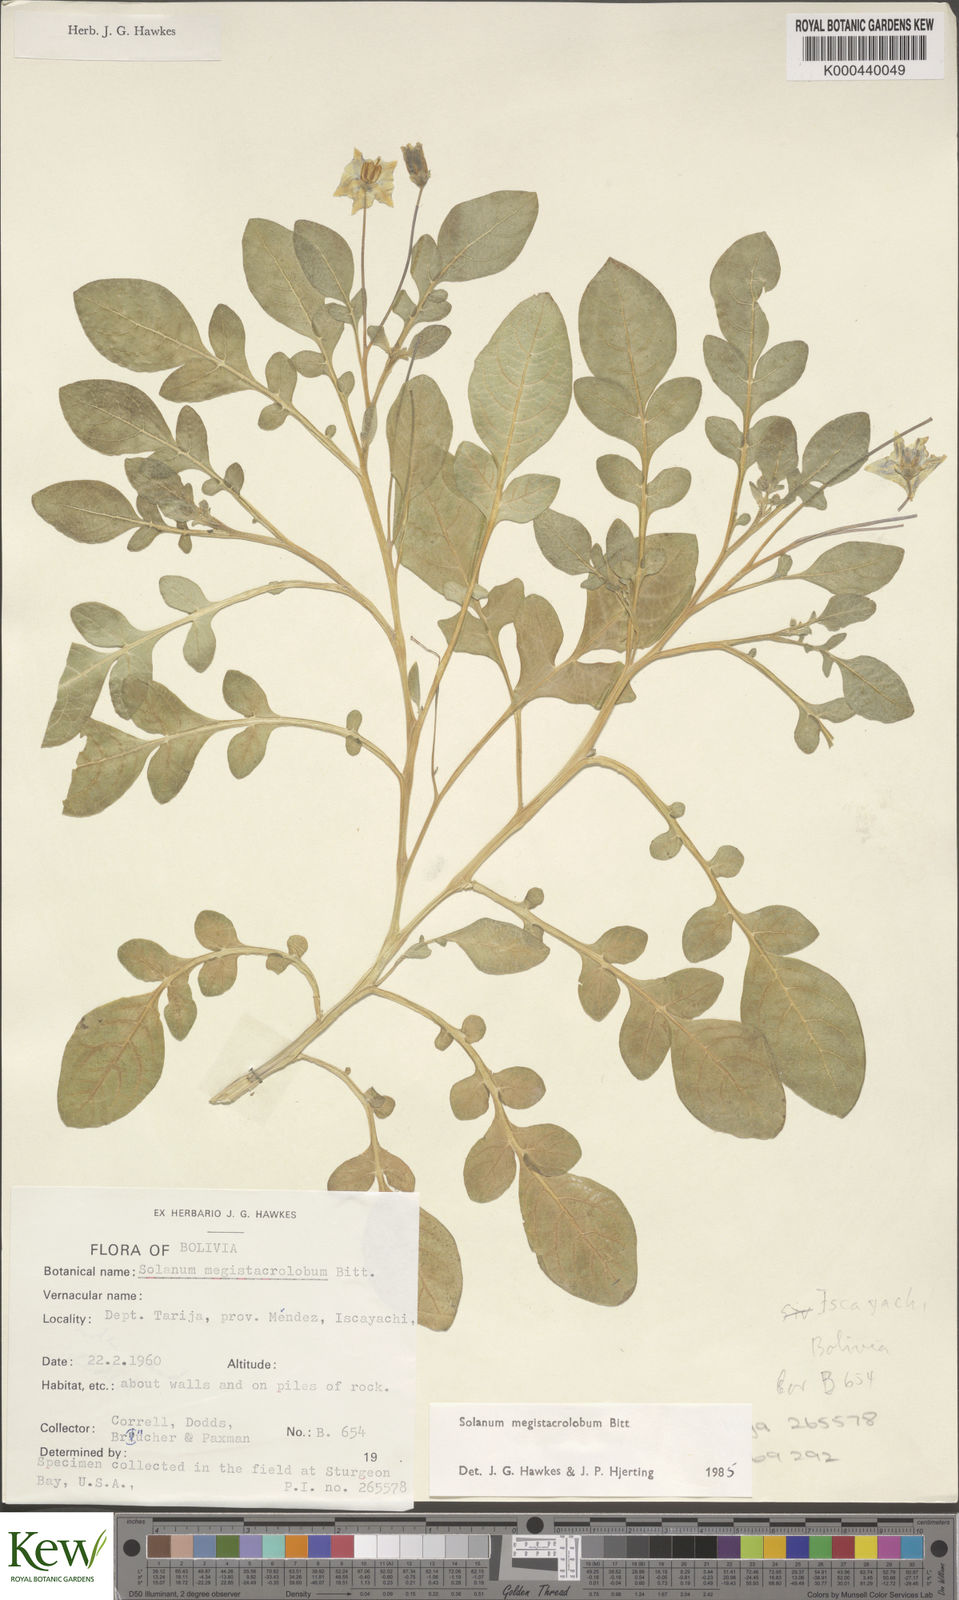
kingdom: Plantae
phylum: Tracheophyta
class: Magnoliopsida
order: Solanales
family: Solanaceae
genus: Solanum
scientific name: Solanum boliviense
